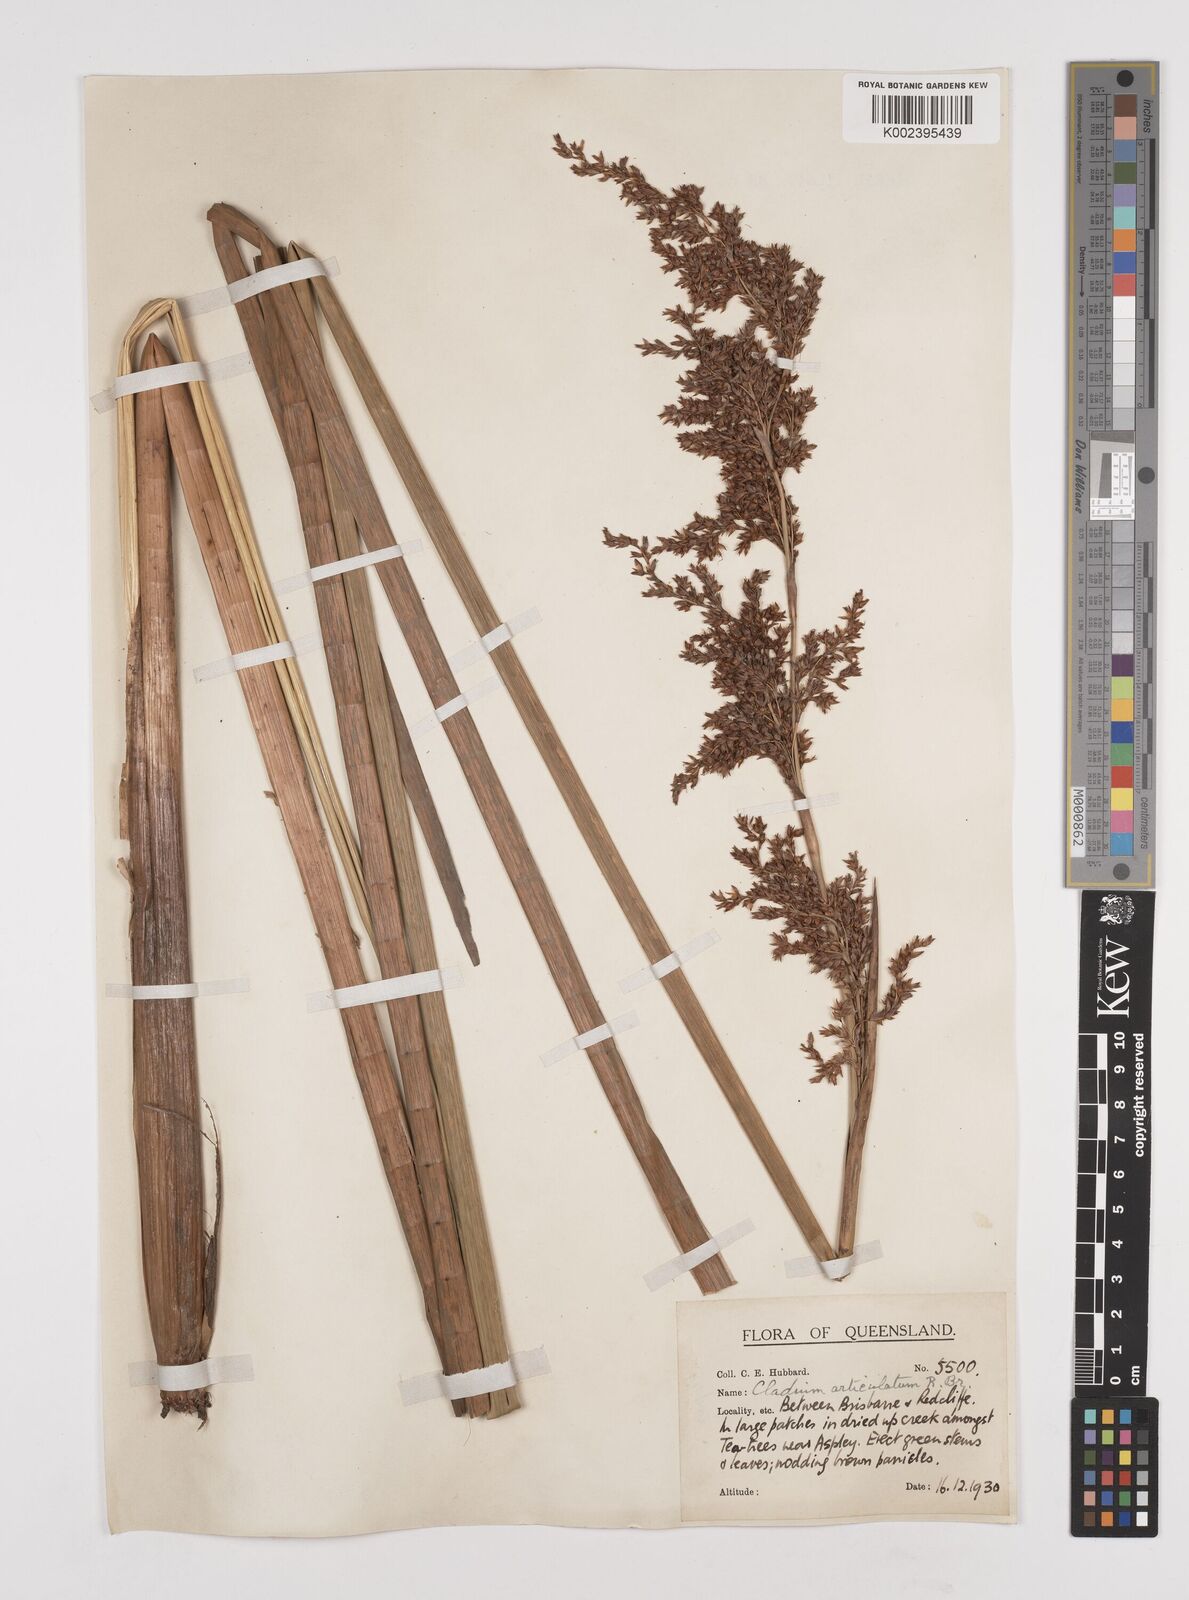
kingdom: Plantae
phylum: Tracheophyta
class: Liliopsida
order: Poales
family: Cyperaceae
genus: Machaerina
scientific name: Machaerina articulata
